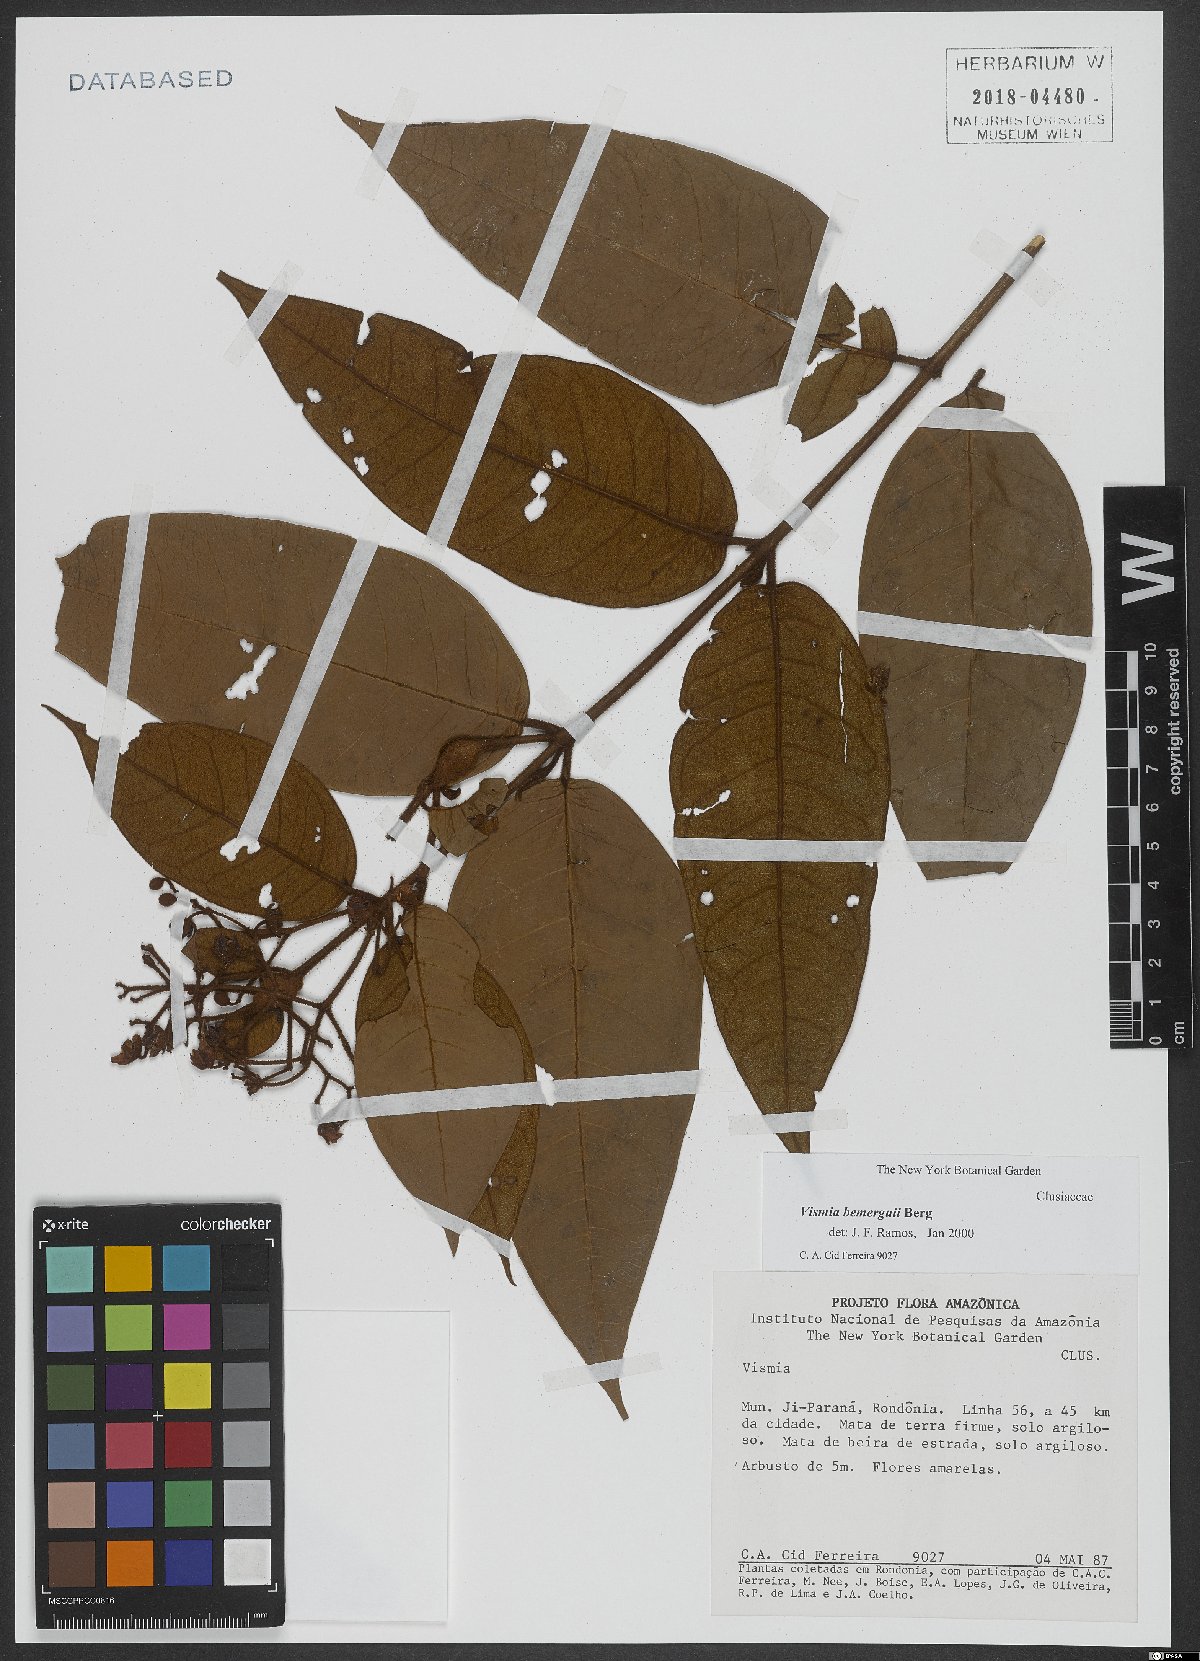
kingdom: Plantae
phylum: Tracheophyta
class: Magnoliopsida
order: Malpighiales
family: Hypericaceae
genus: Vismia
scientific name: Vismia bemerguii
